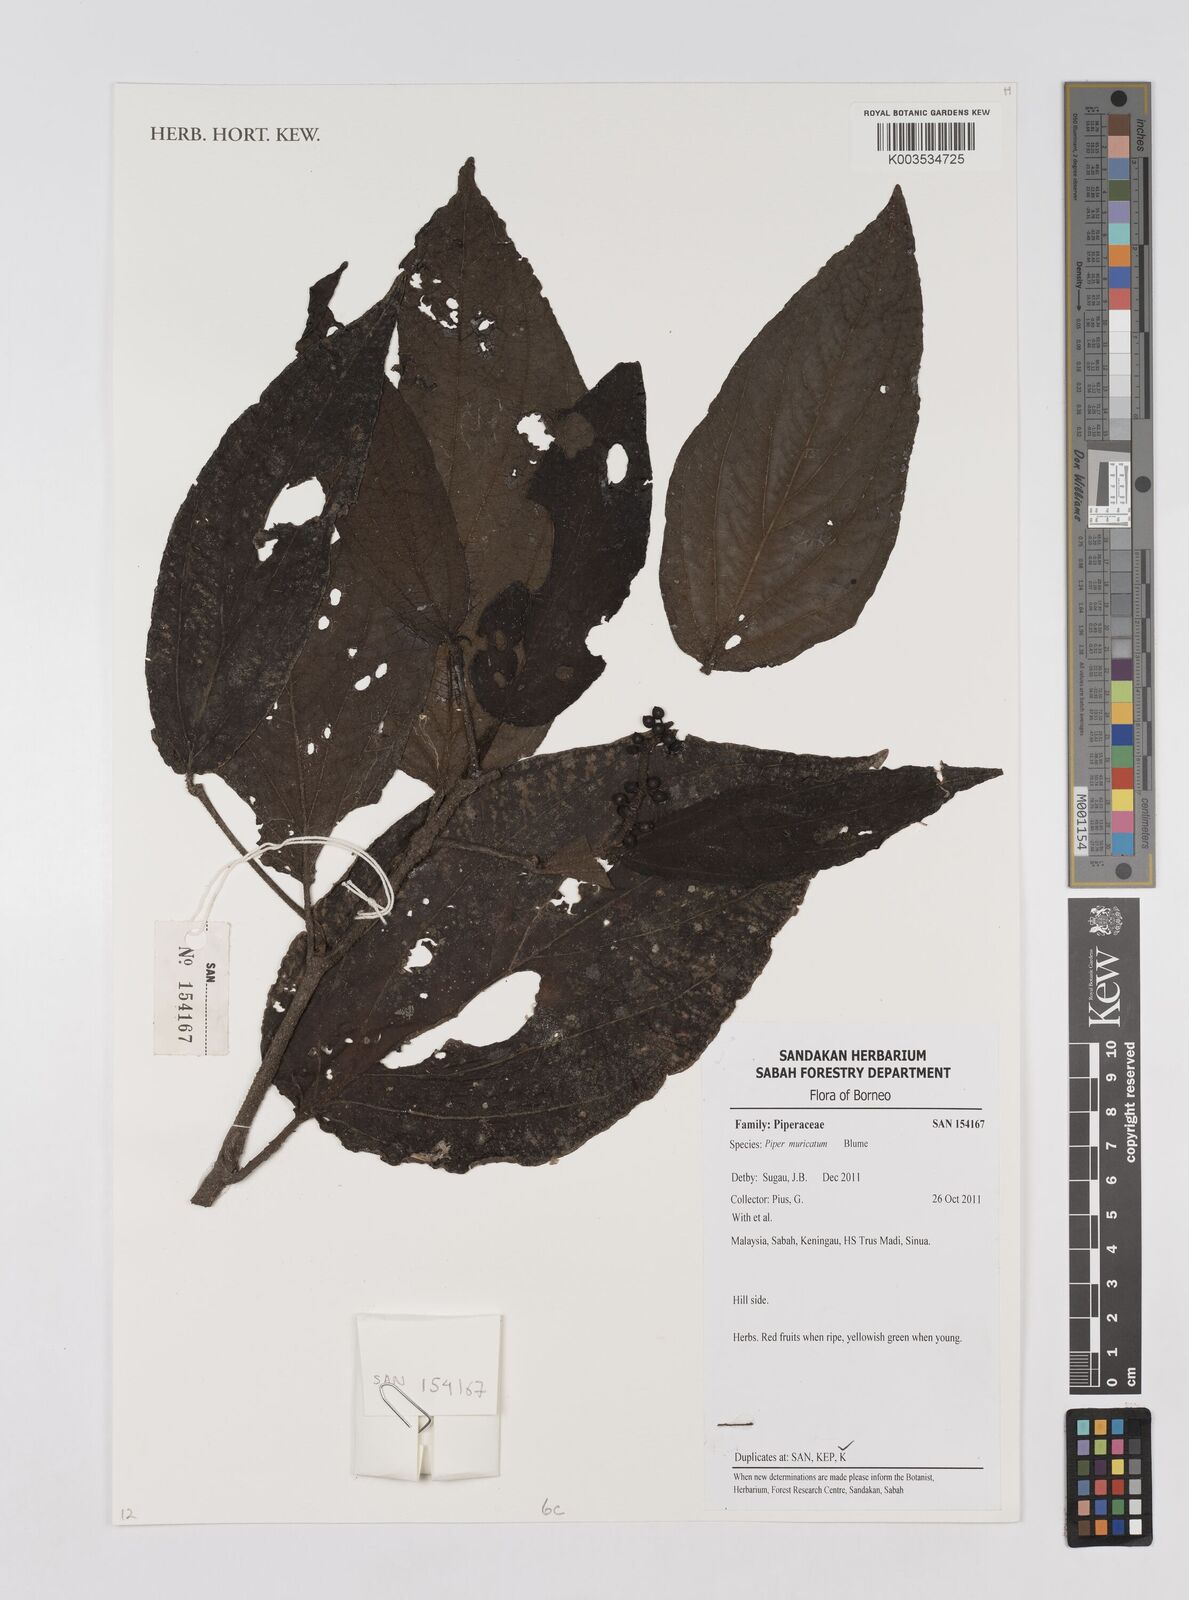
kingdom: Plantae
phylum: Tracheophyta
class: Magnoliopsida
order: Piperales
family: Piperaceae
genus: Piper
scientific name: Piper muricatum
